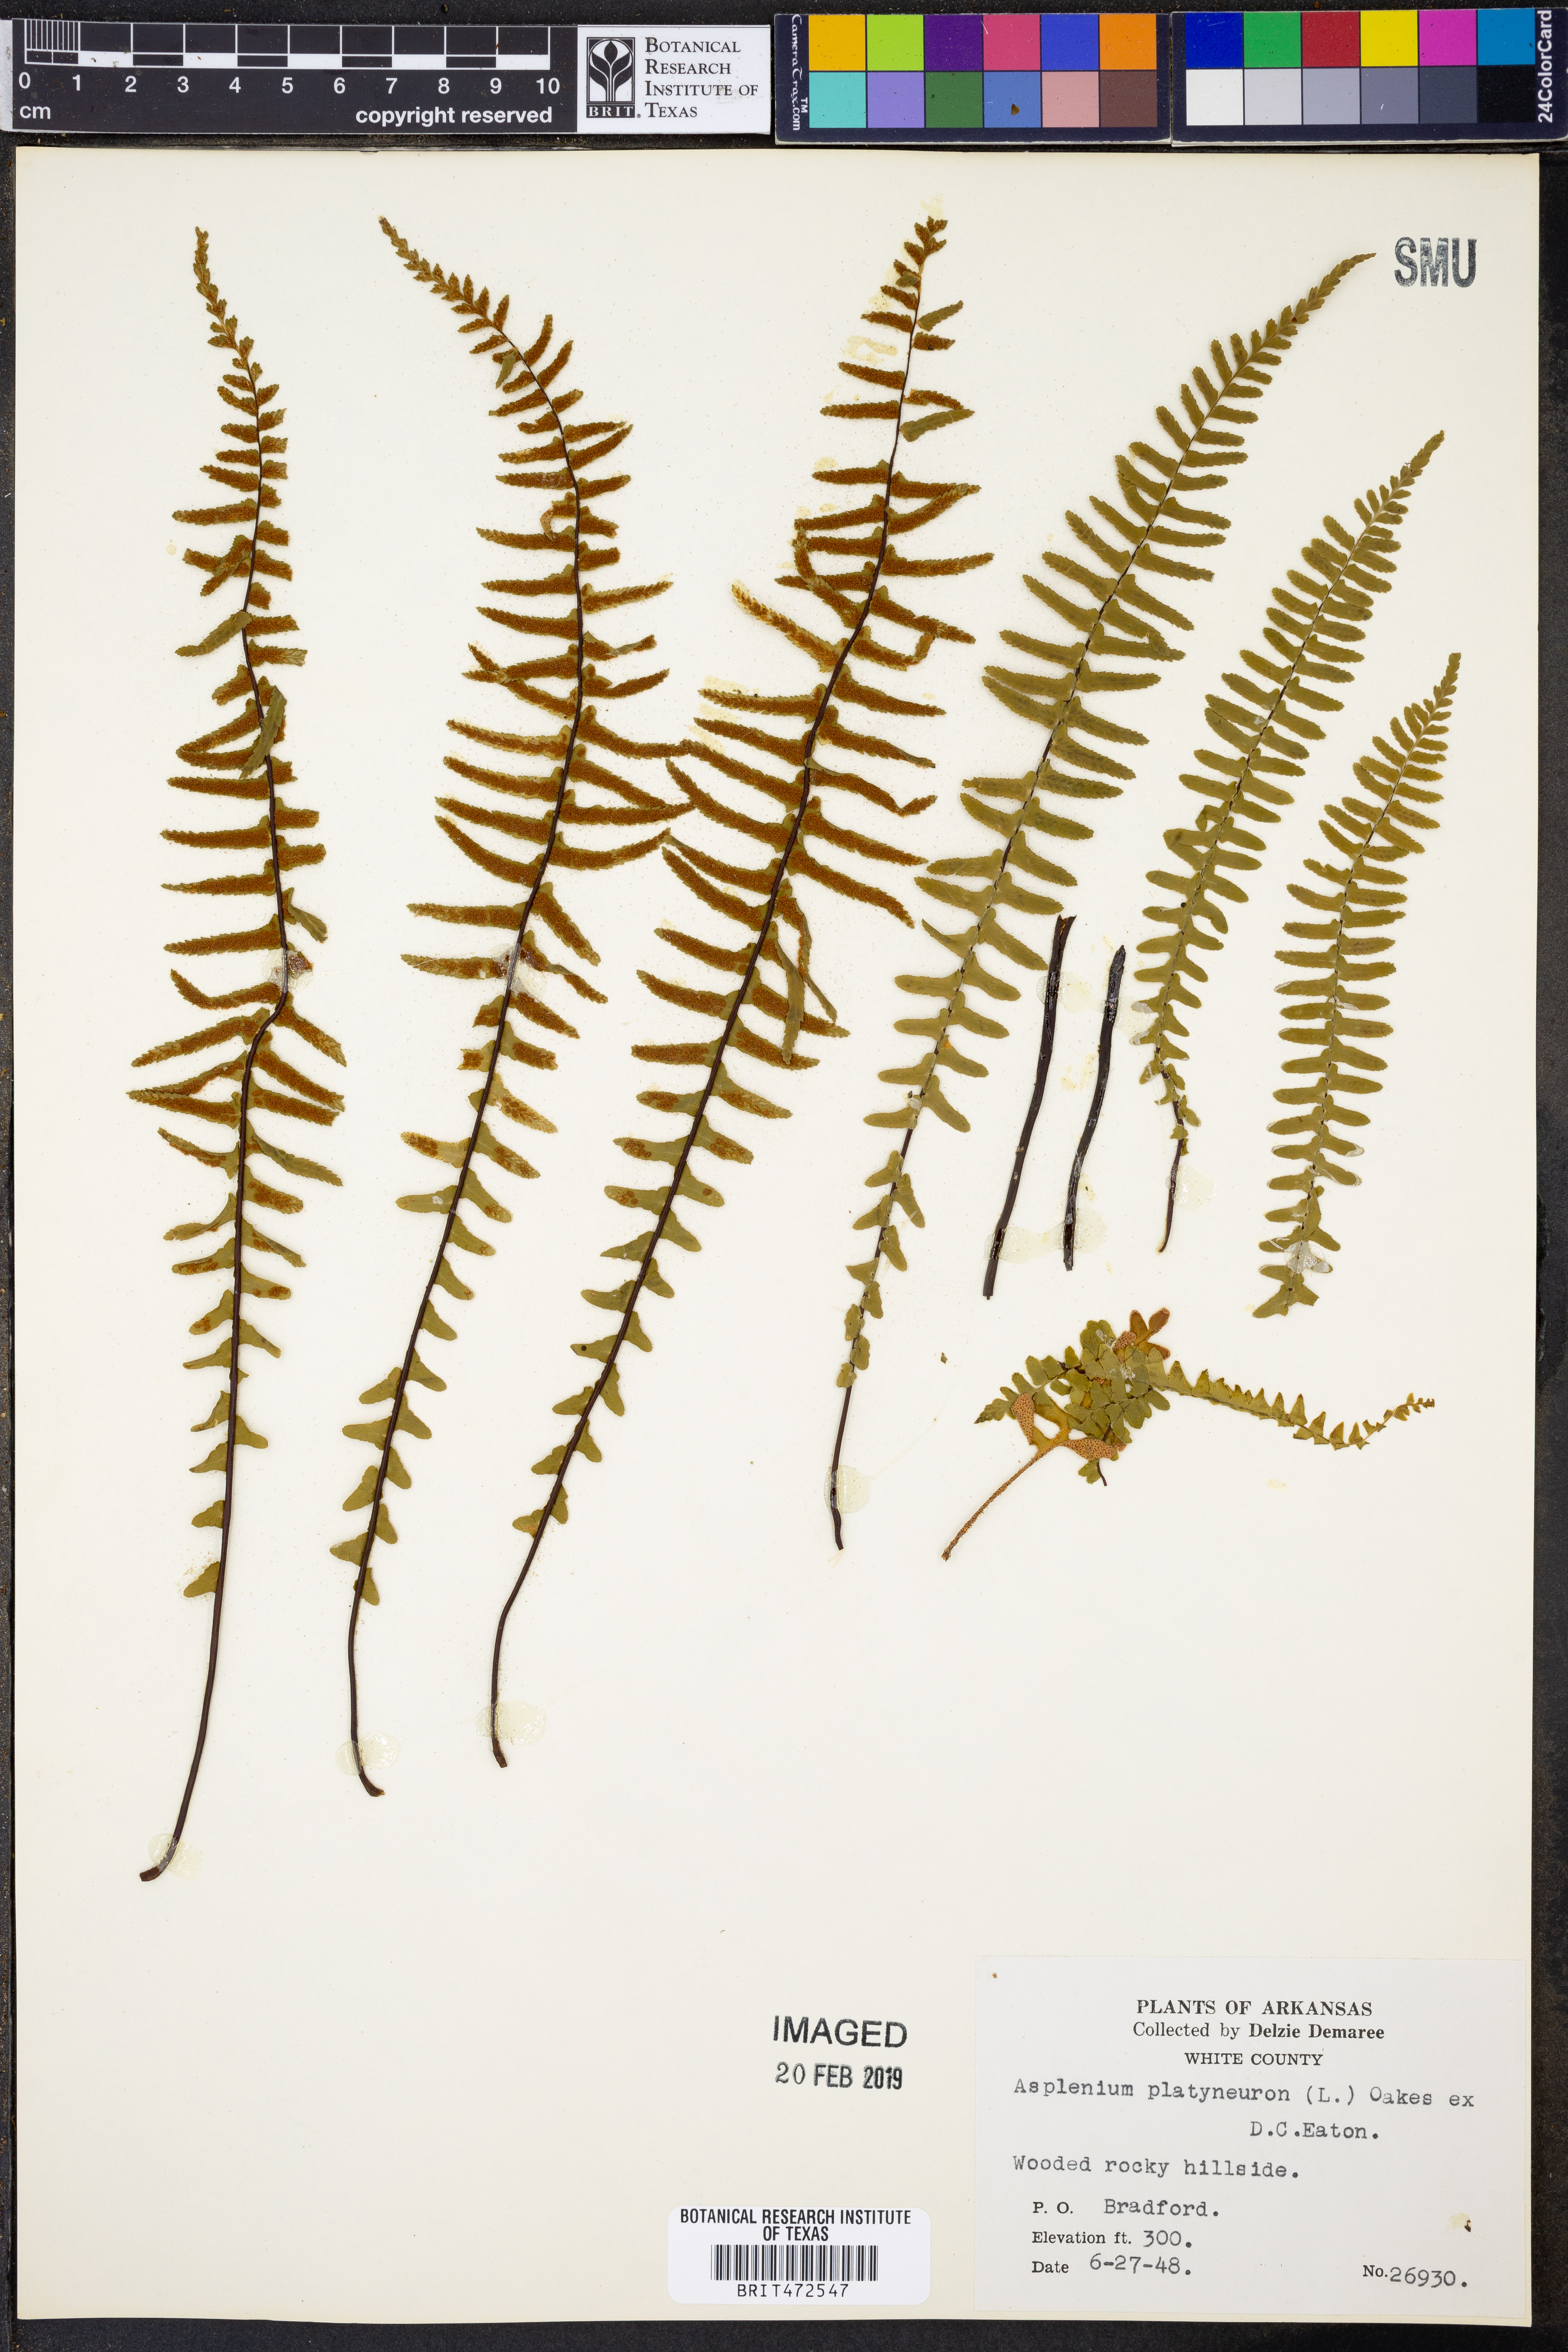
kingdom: Plantae
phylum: Tracheophyta
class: Polypodiopsida
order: Polypodiales
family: Aspleniaceae
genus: Asplenium
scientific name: Asplenium platyneuron
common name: Ebony spleenwort
